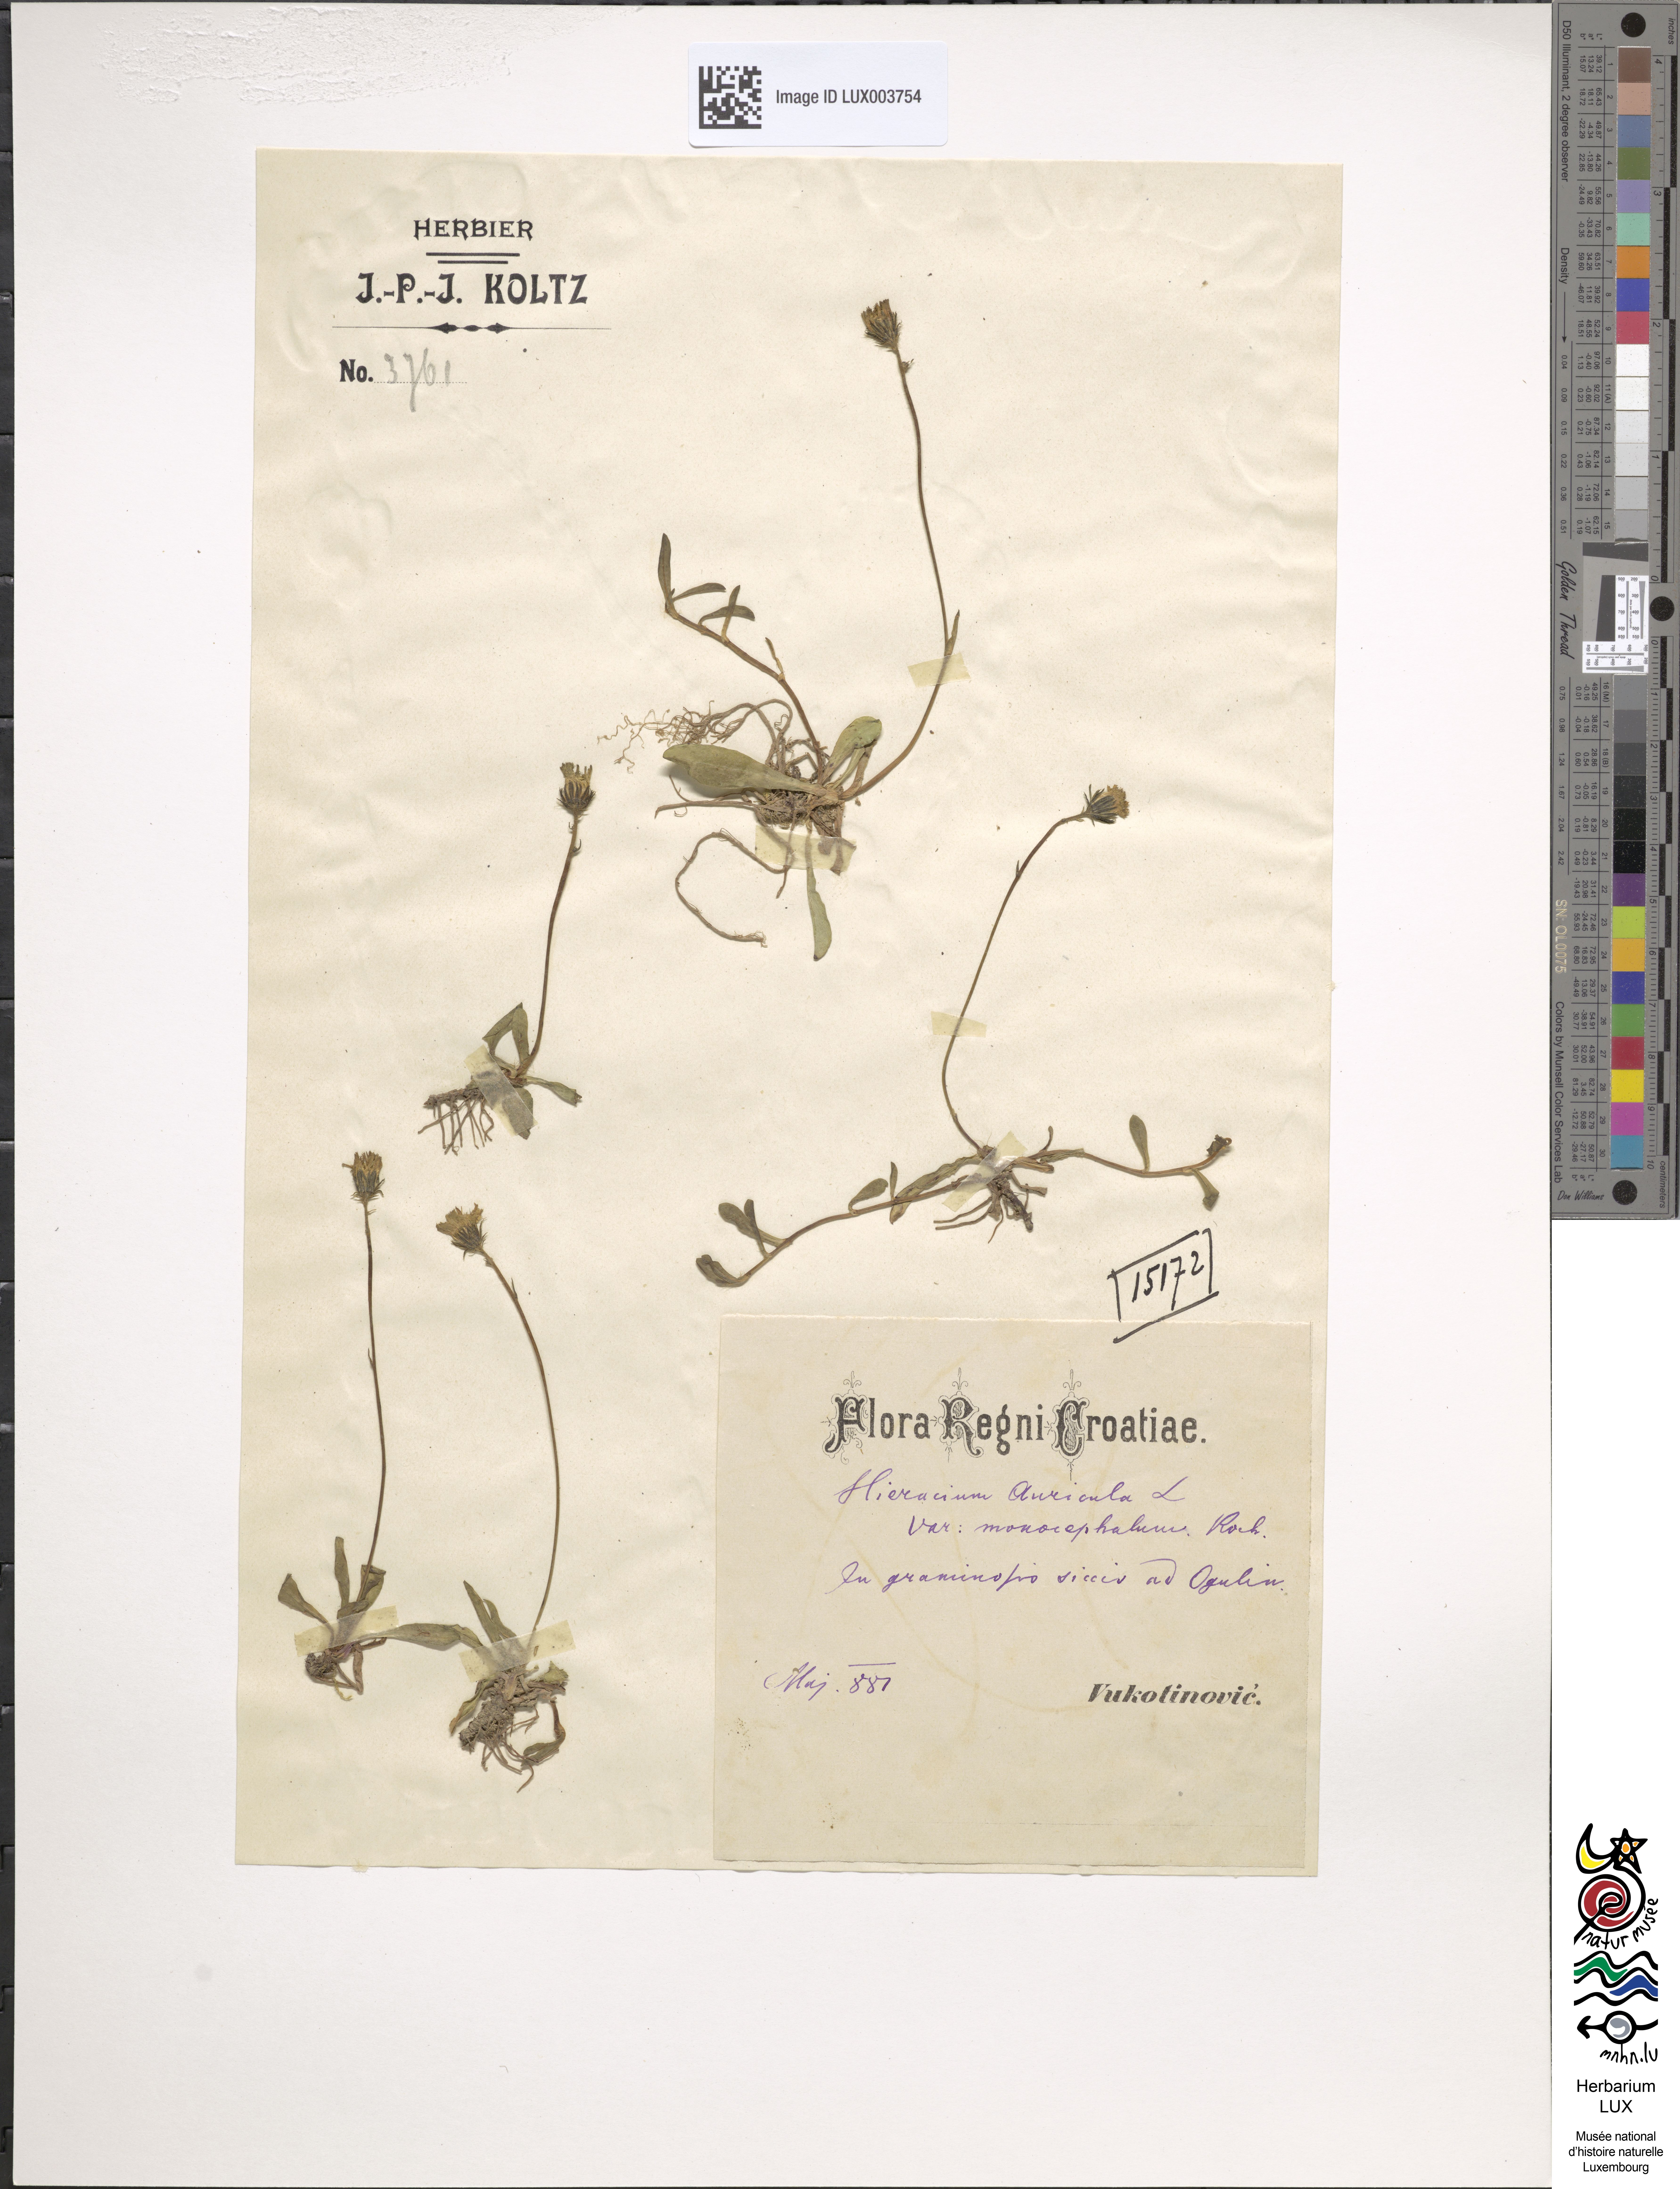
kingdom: Plantae
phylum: Tracheophyta
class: Magnoliopsida
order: Asterales
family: Asteraceae
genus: Hieracium
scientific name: Hieracium auricula
